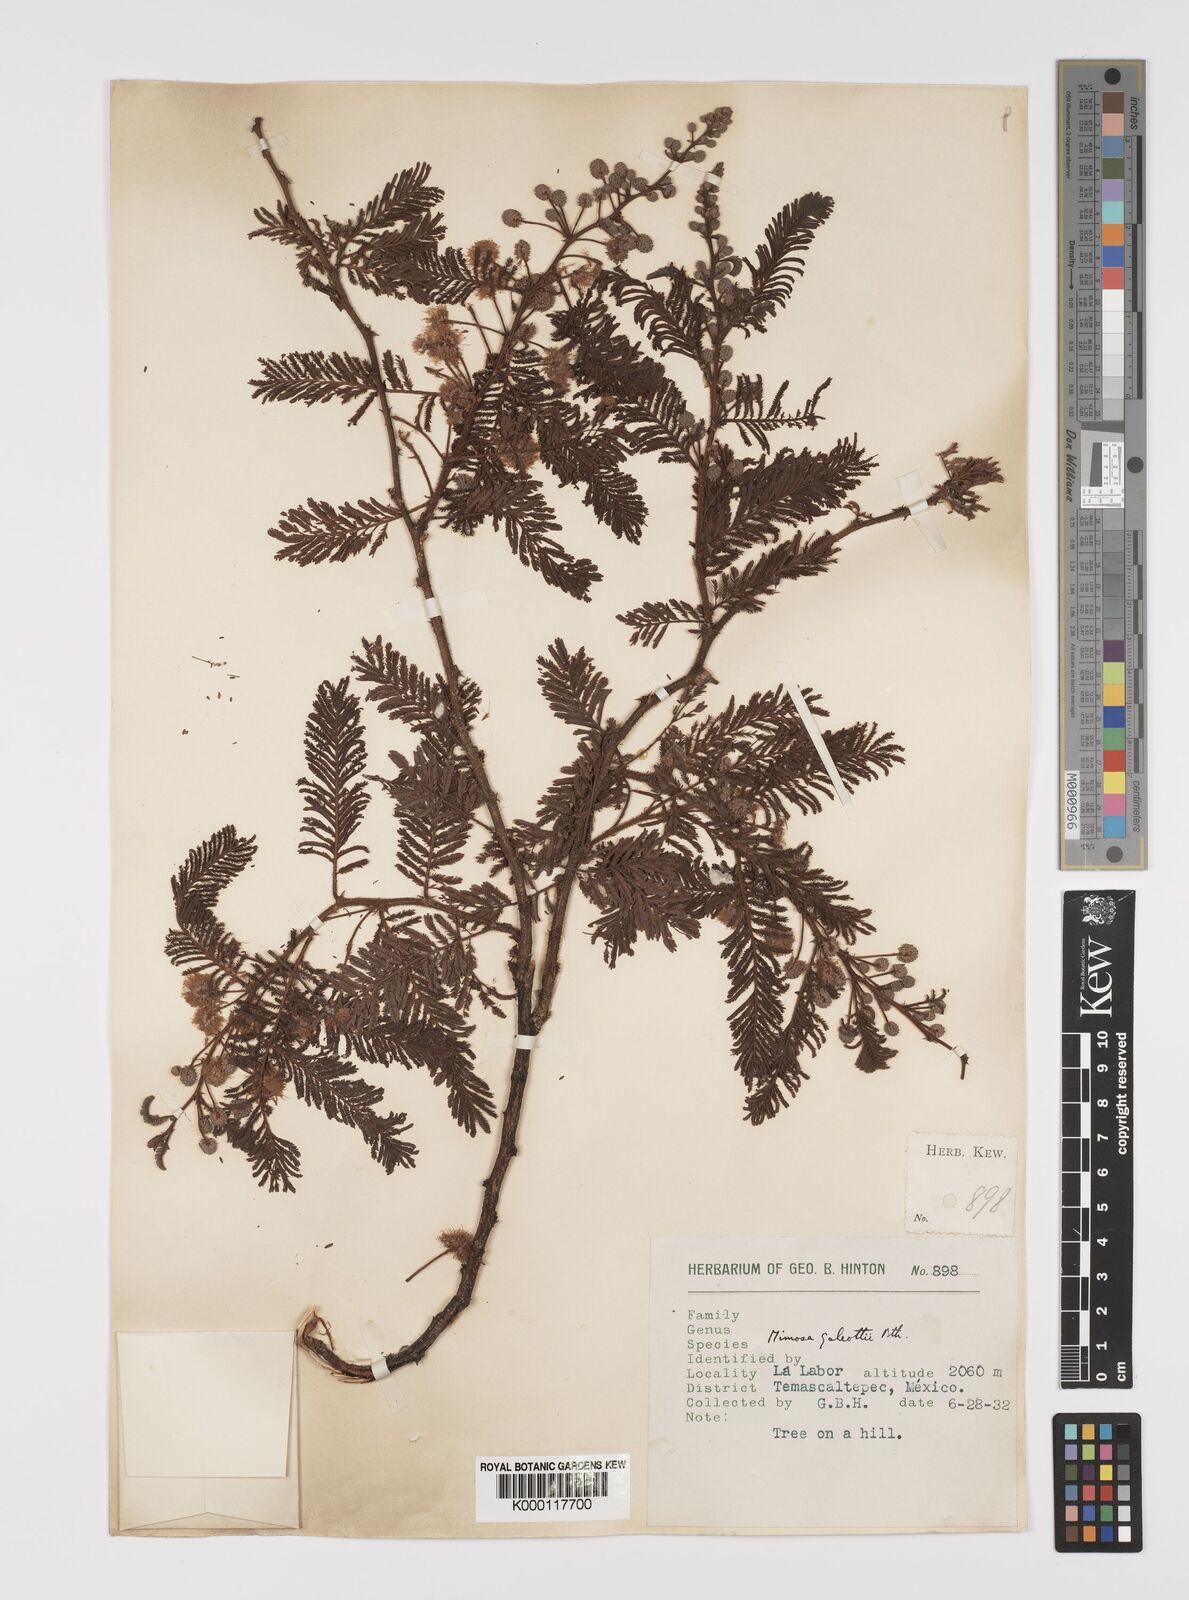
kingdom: Plantae
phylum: Tracheophyta
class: Magnoliopsida
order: Fabales
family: Fabaceae
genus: Mimosa
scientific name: Mimosa galeottii
